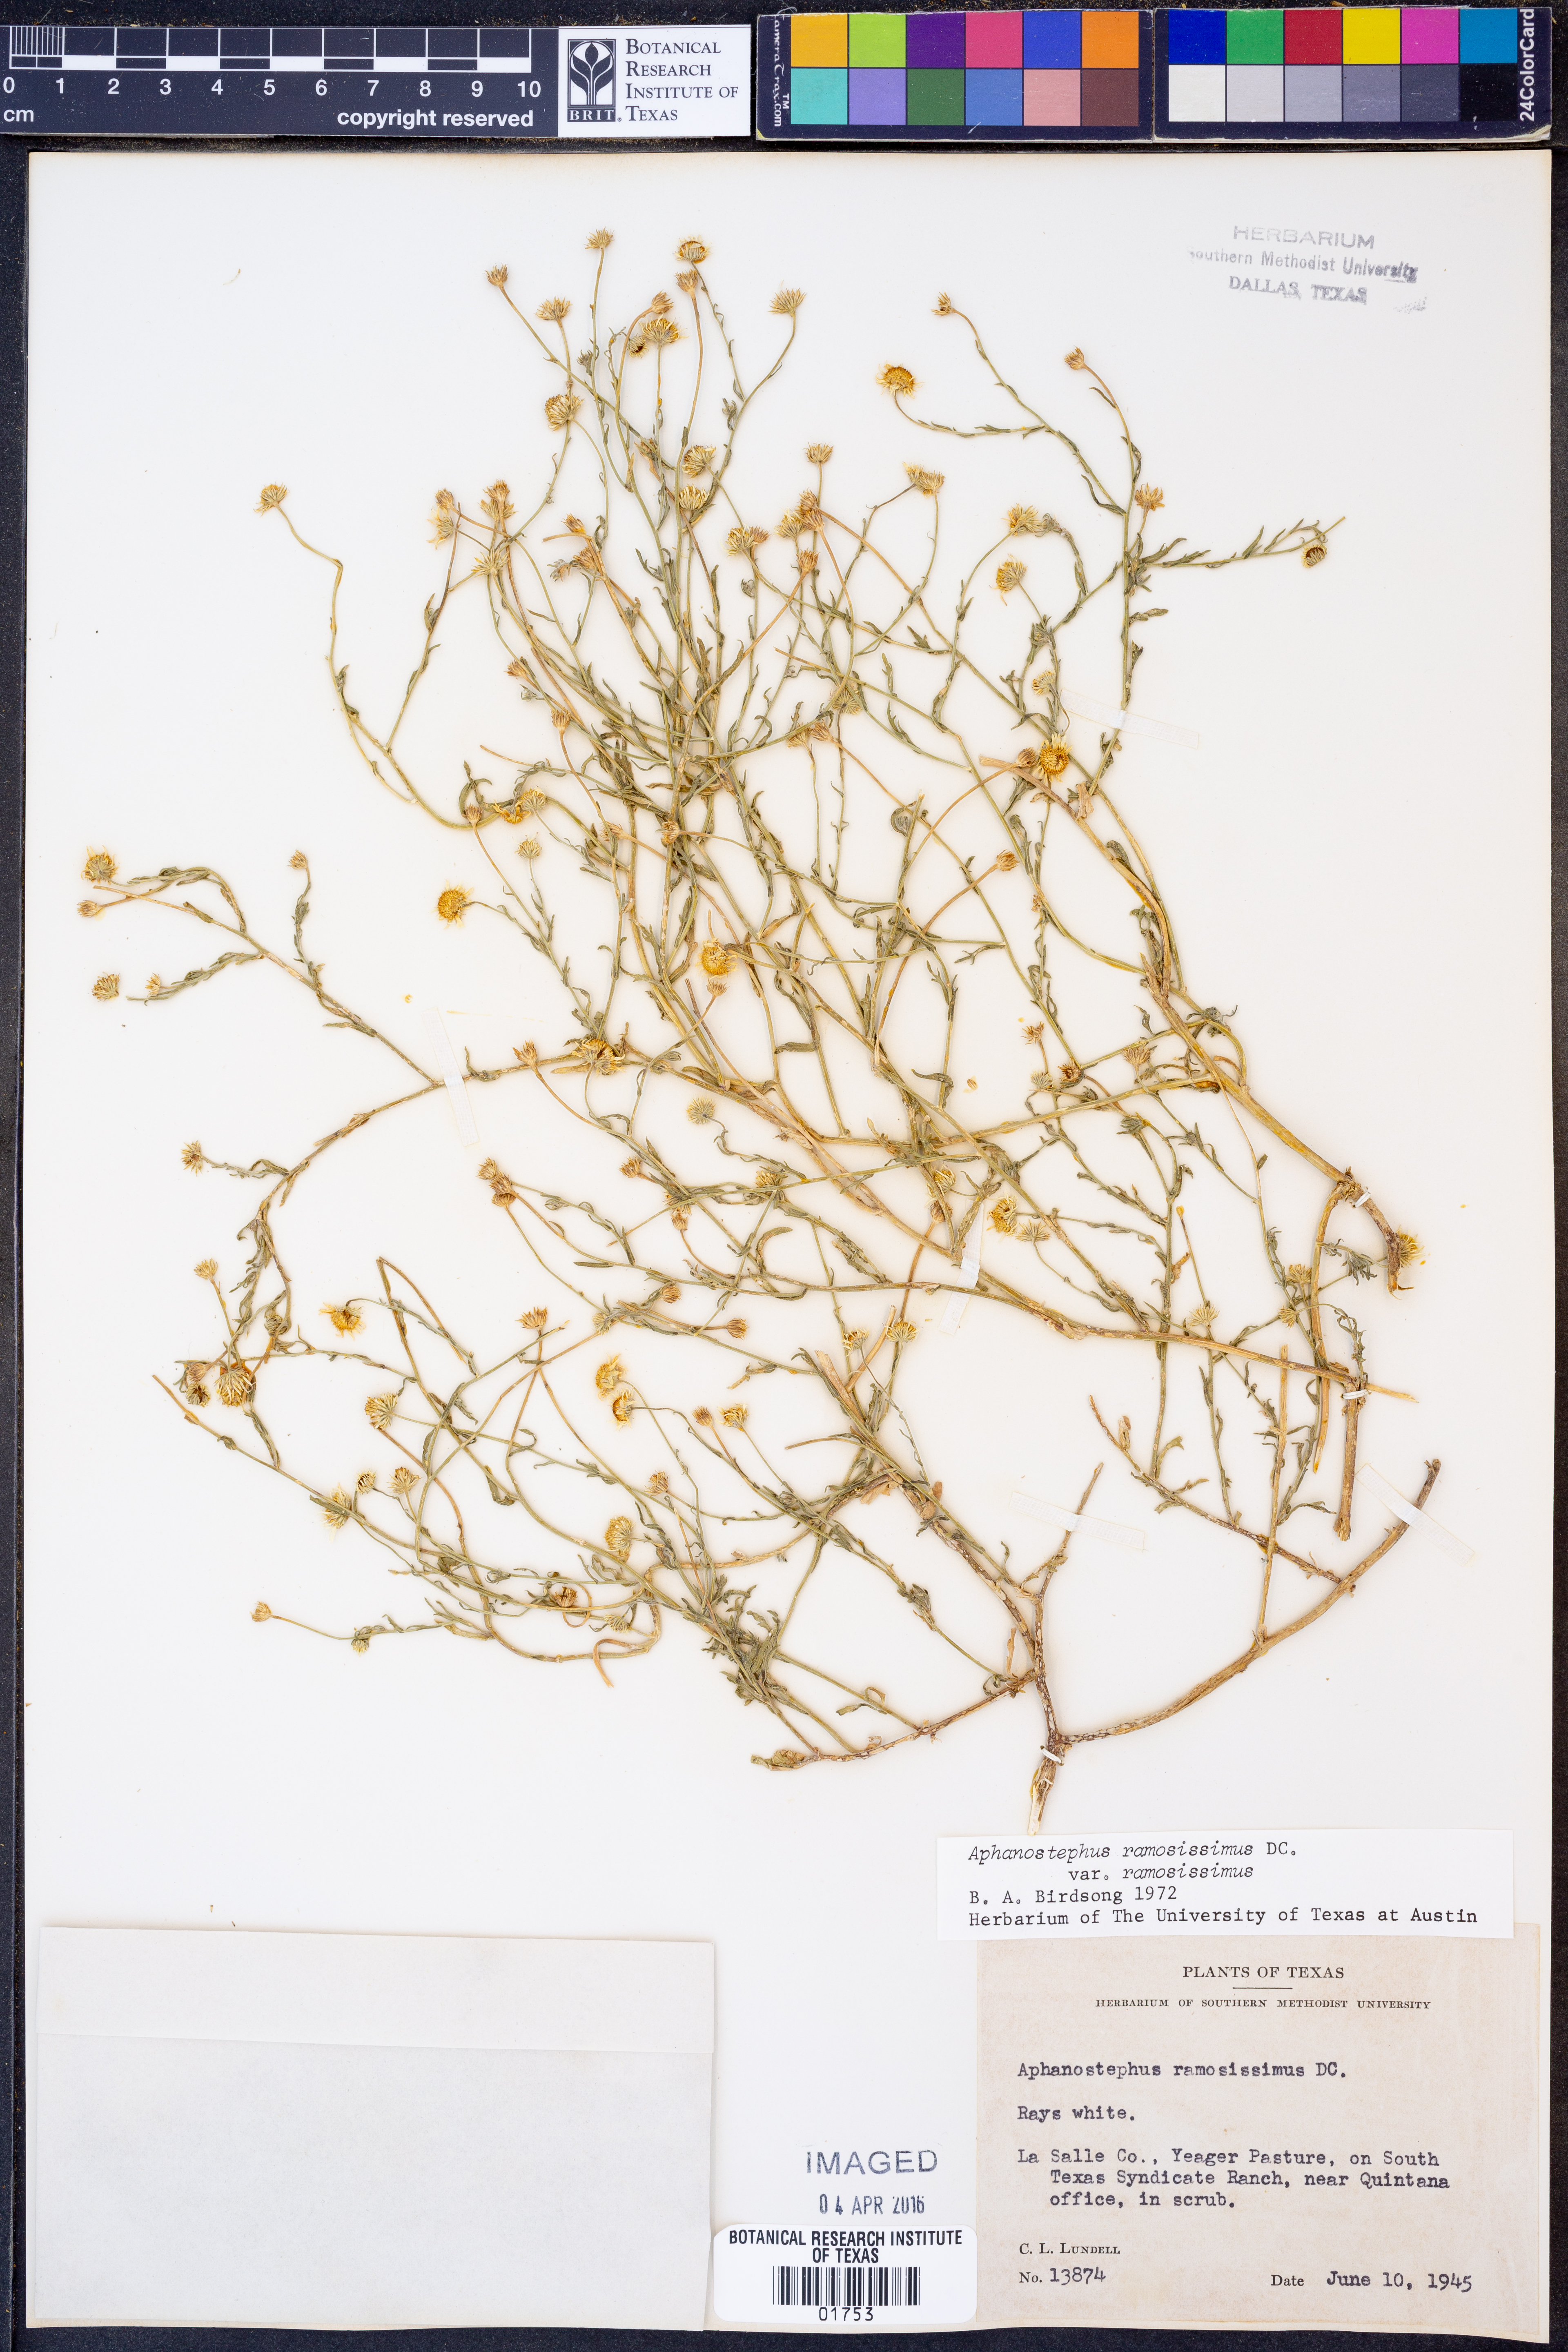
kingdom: Plantae
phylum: Tracheophyta
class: Magnoliopsida
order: Asterales
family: Asteraceae
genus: Aphanostephus
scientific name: Aphanostephus ramosissimus
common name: Plains lazy daisy
